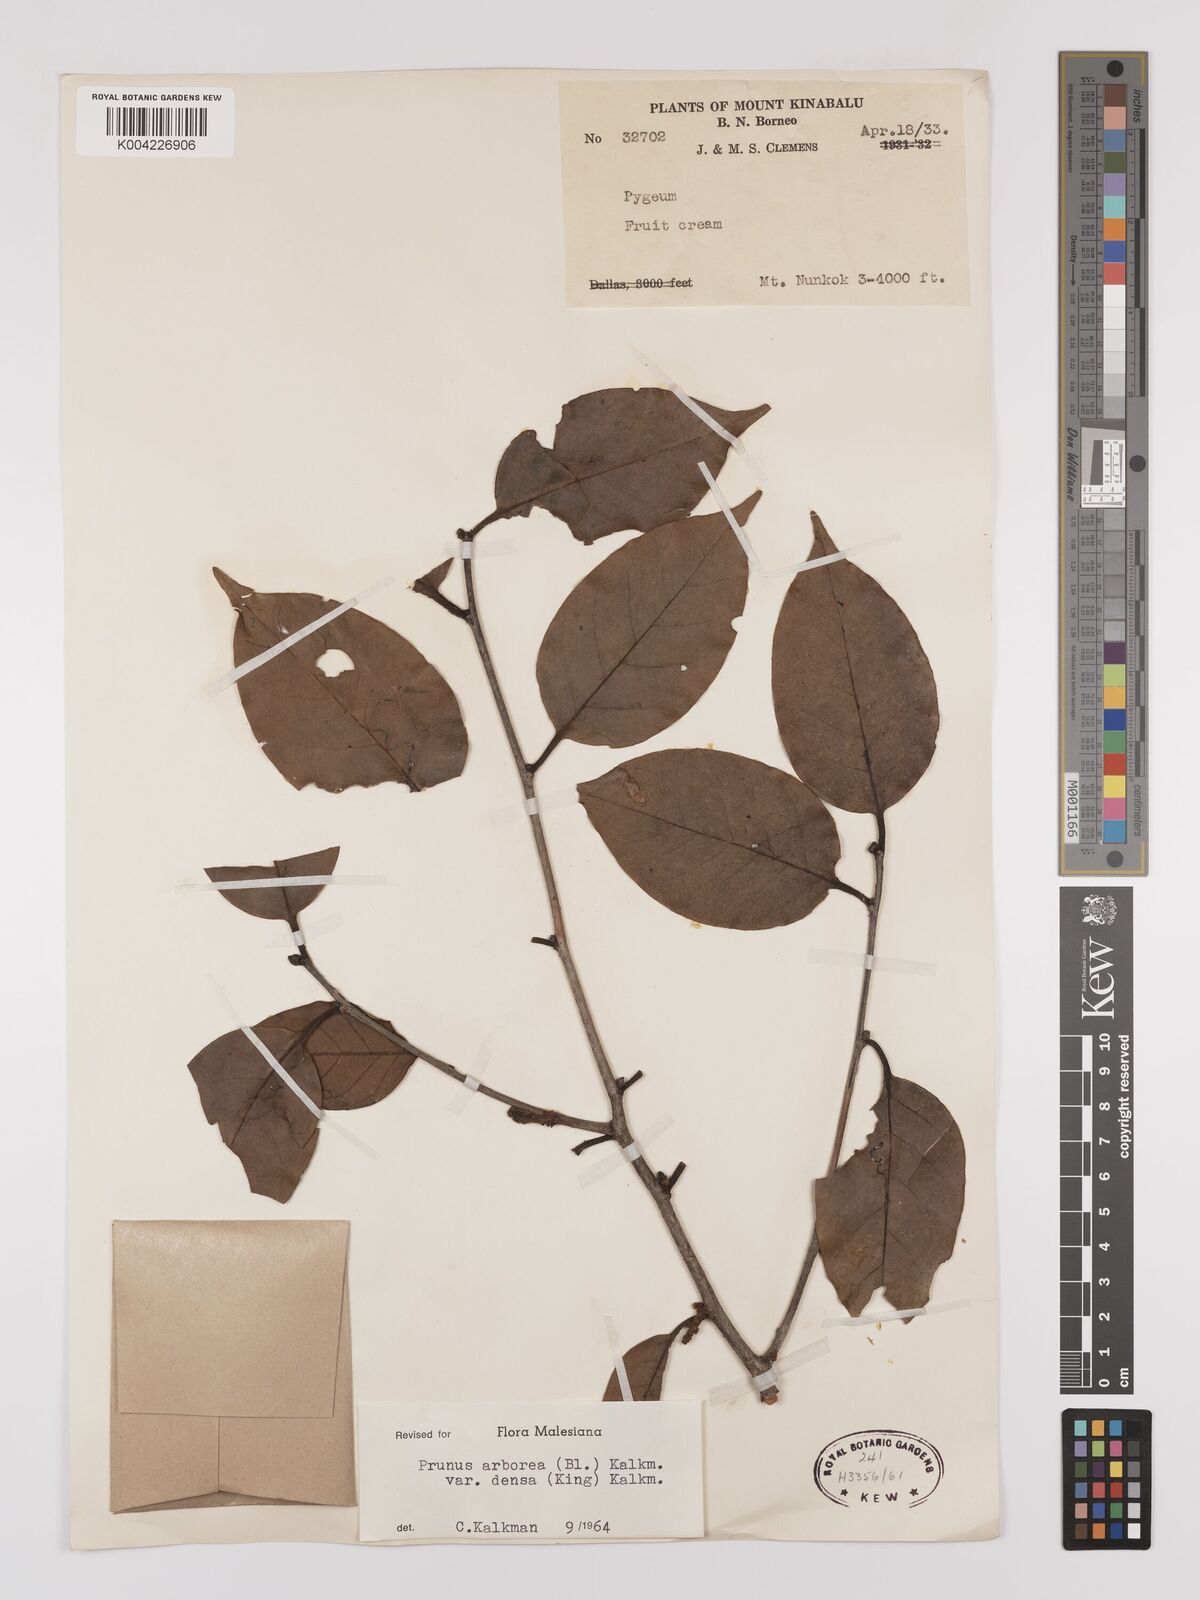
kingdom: Plantae
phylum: Tracheophyta
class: Magnoliopsida
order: Rosales
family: Rosaceae
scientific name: Rosaceae
